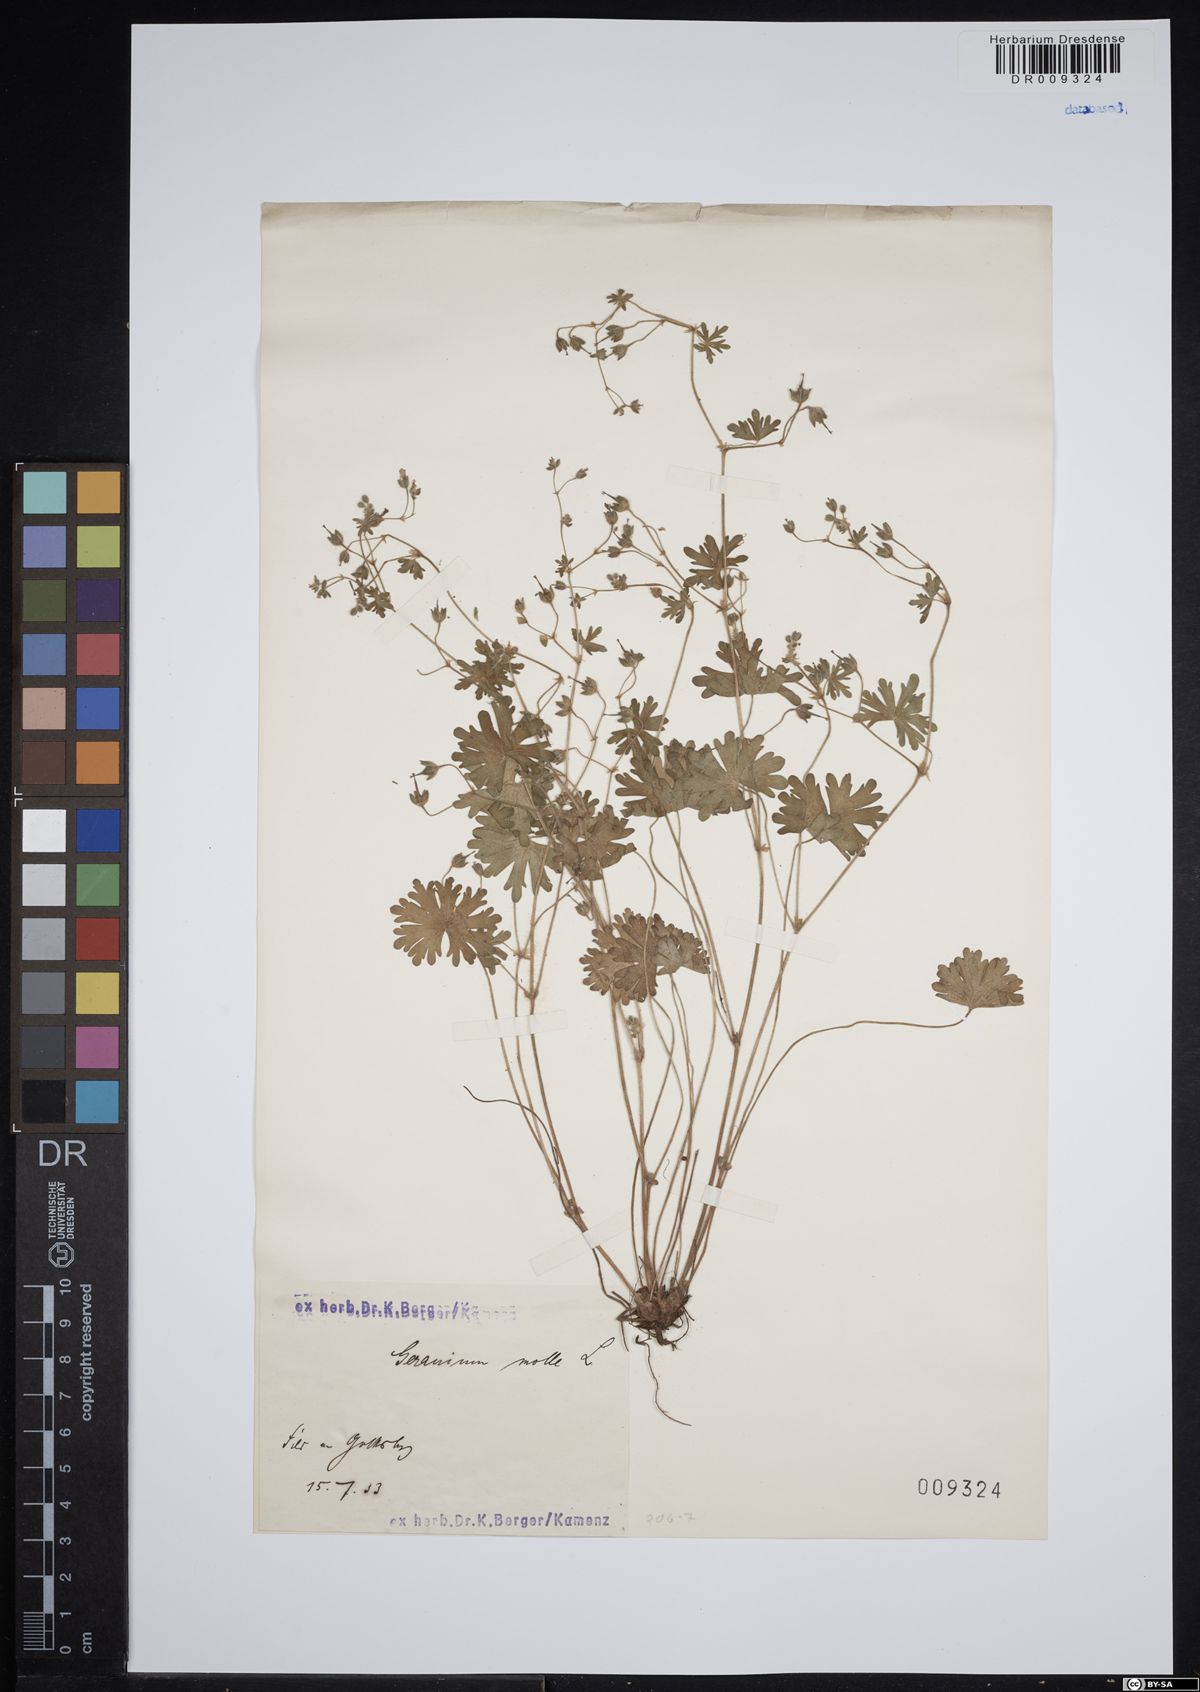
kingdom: Plantae
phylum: Tracheophyta
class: Magnoliopsida
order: Geraniales
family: Geraniaceae
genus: Geranium
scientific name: Geranium molle
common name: Dove's-foot crane's-bill
